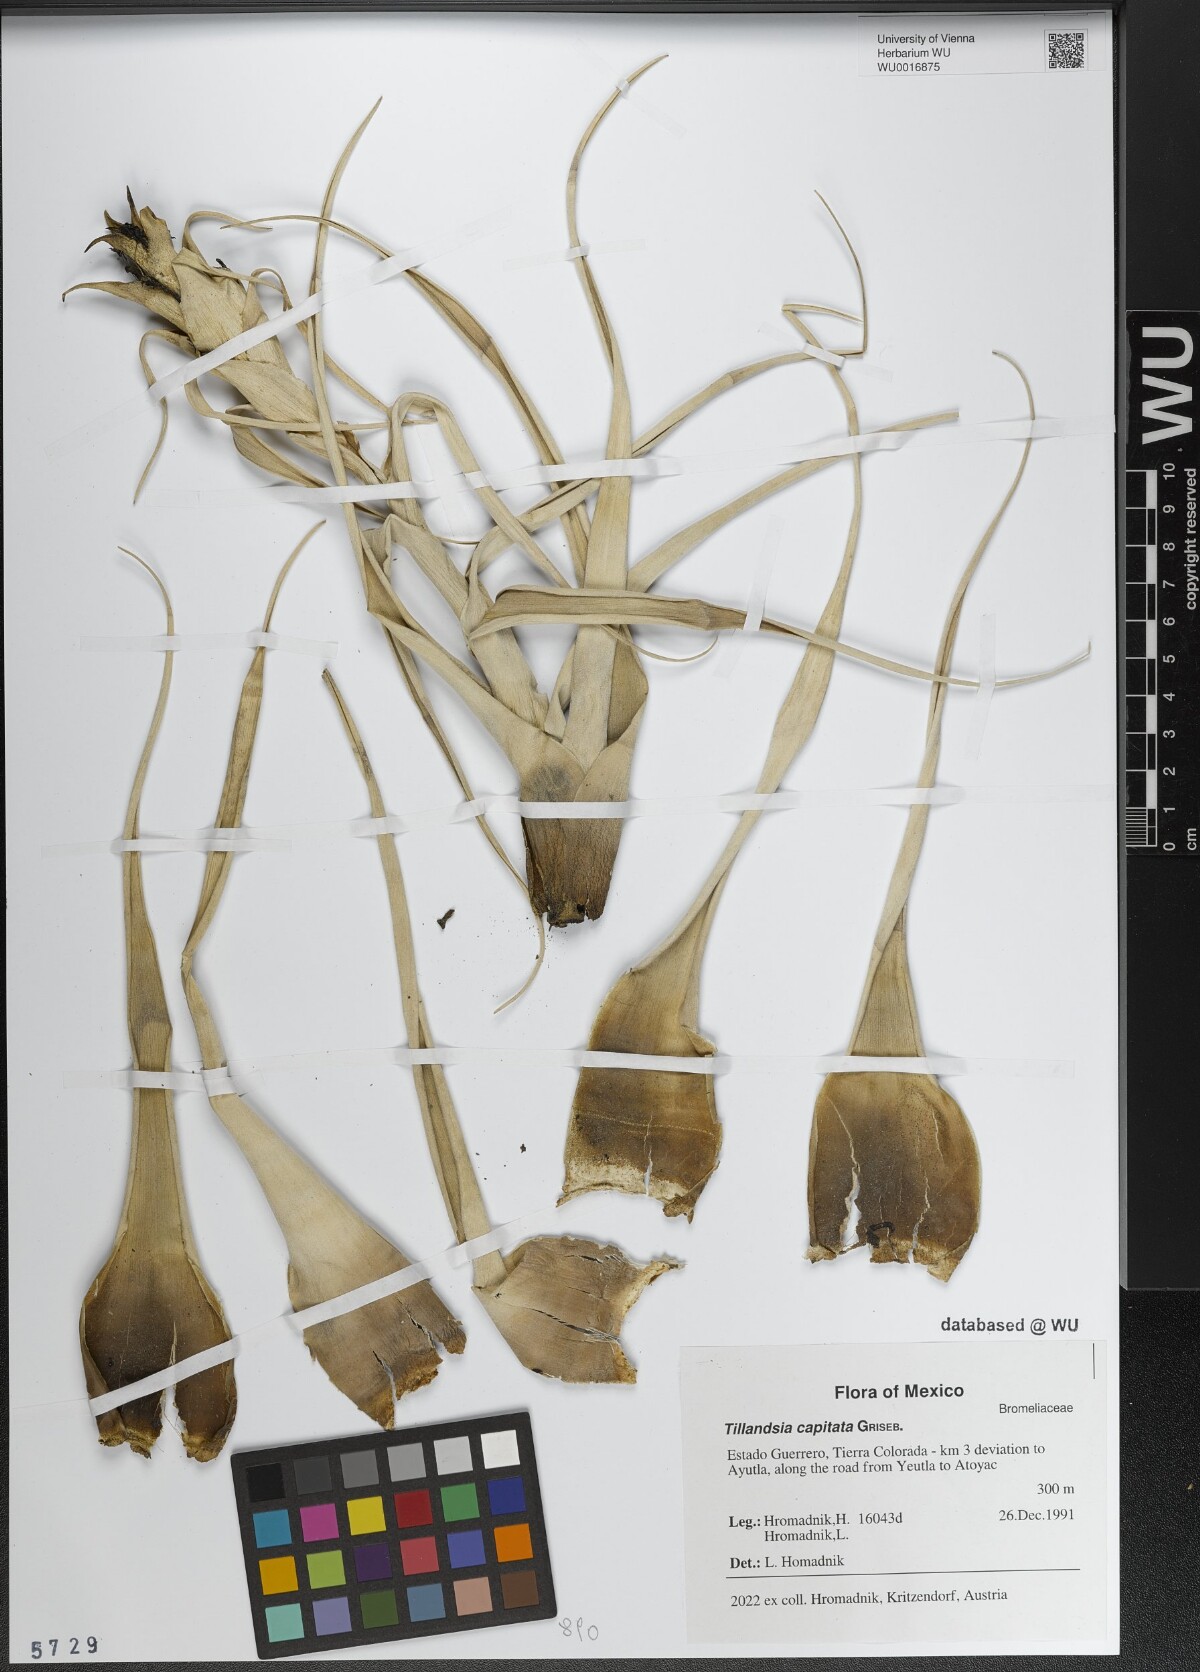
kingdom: Plantae
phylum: Tracheophyta
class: Liliopsida
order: Poales
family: Bromeliaceae
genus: Tillandsia
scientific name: Tillandsia capitata
